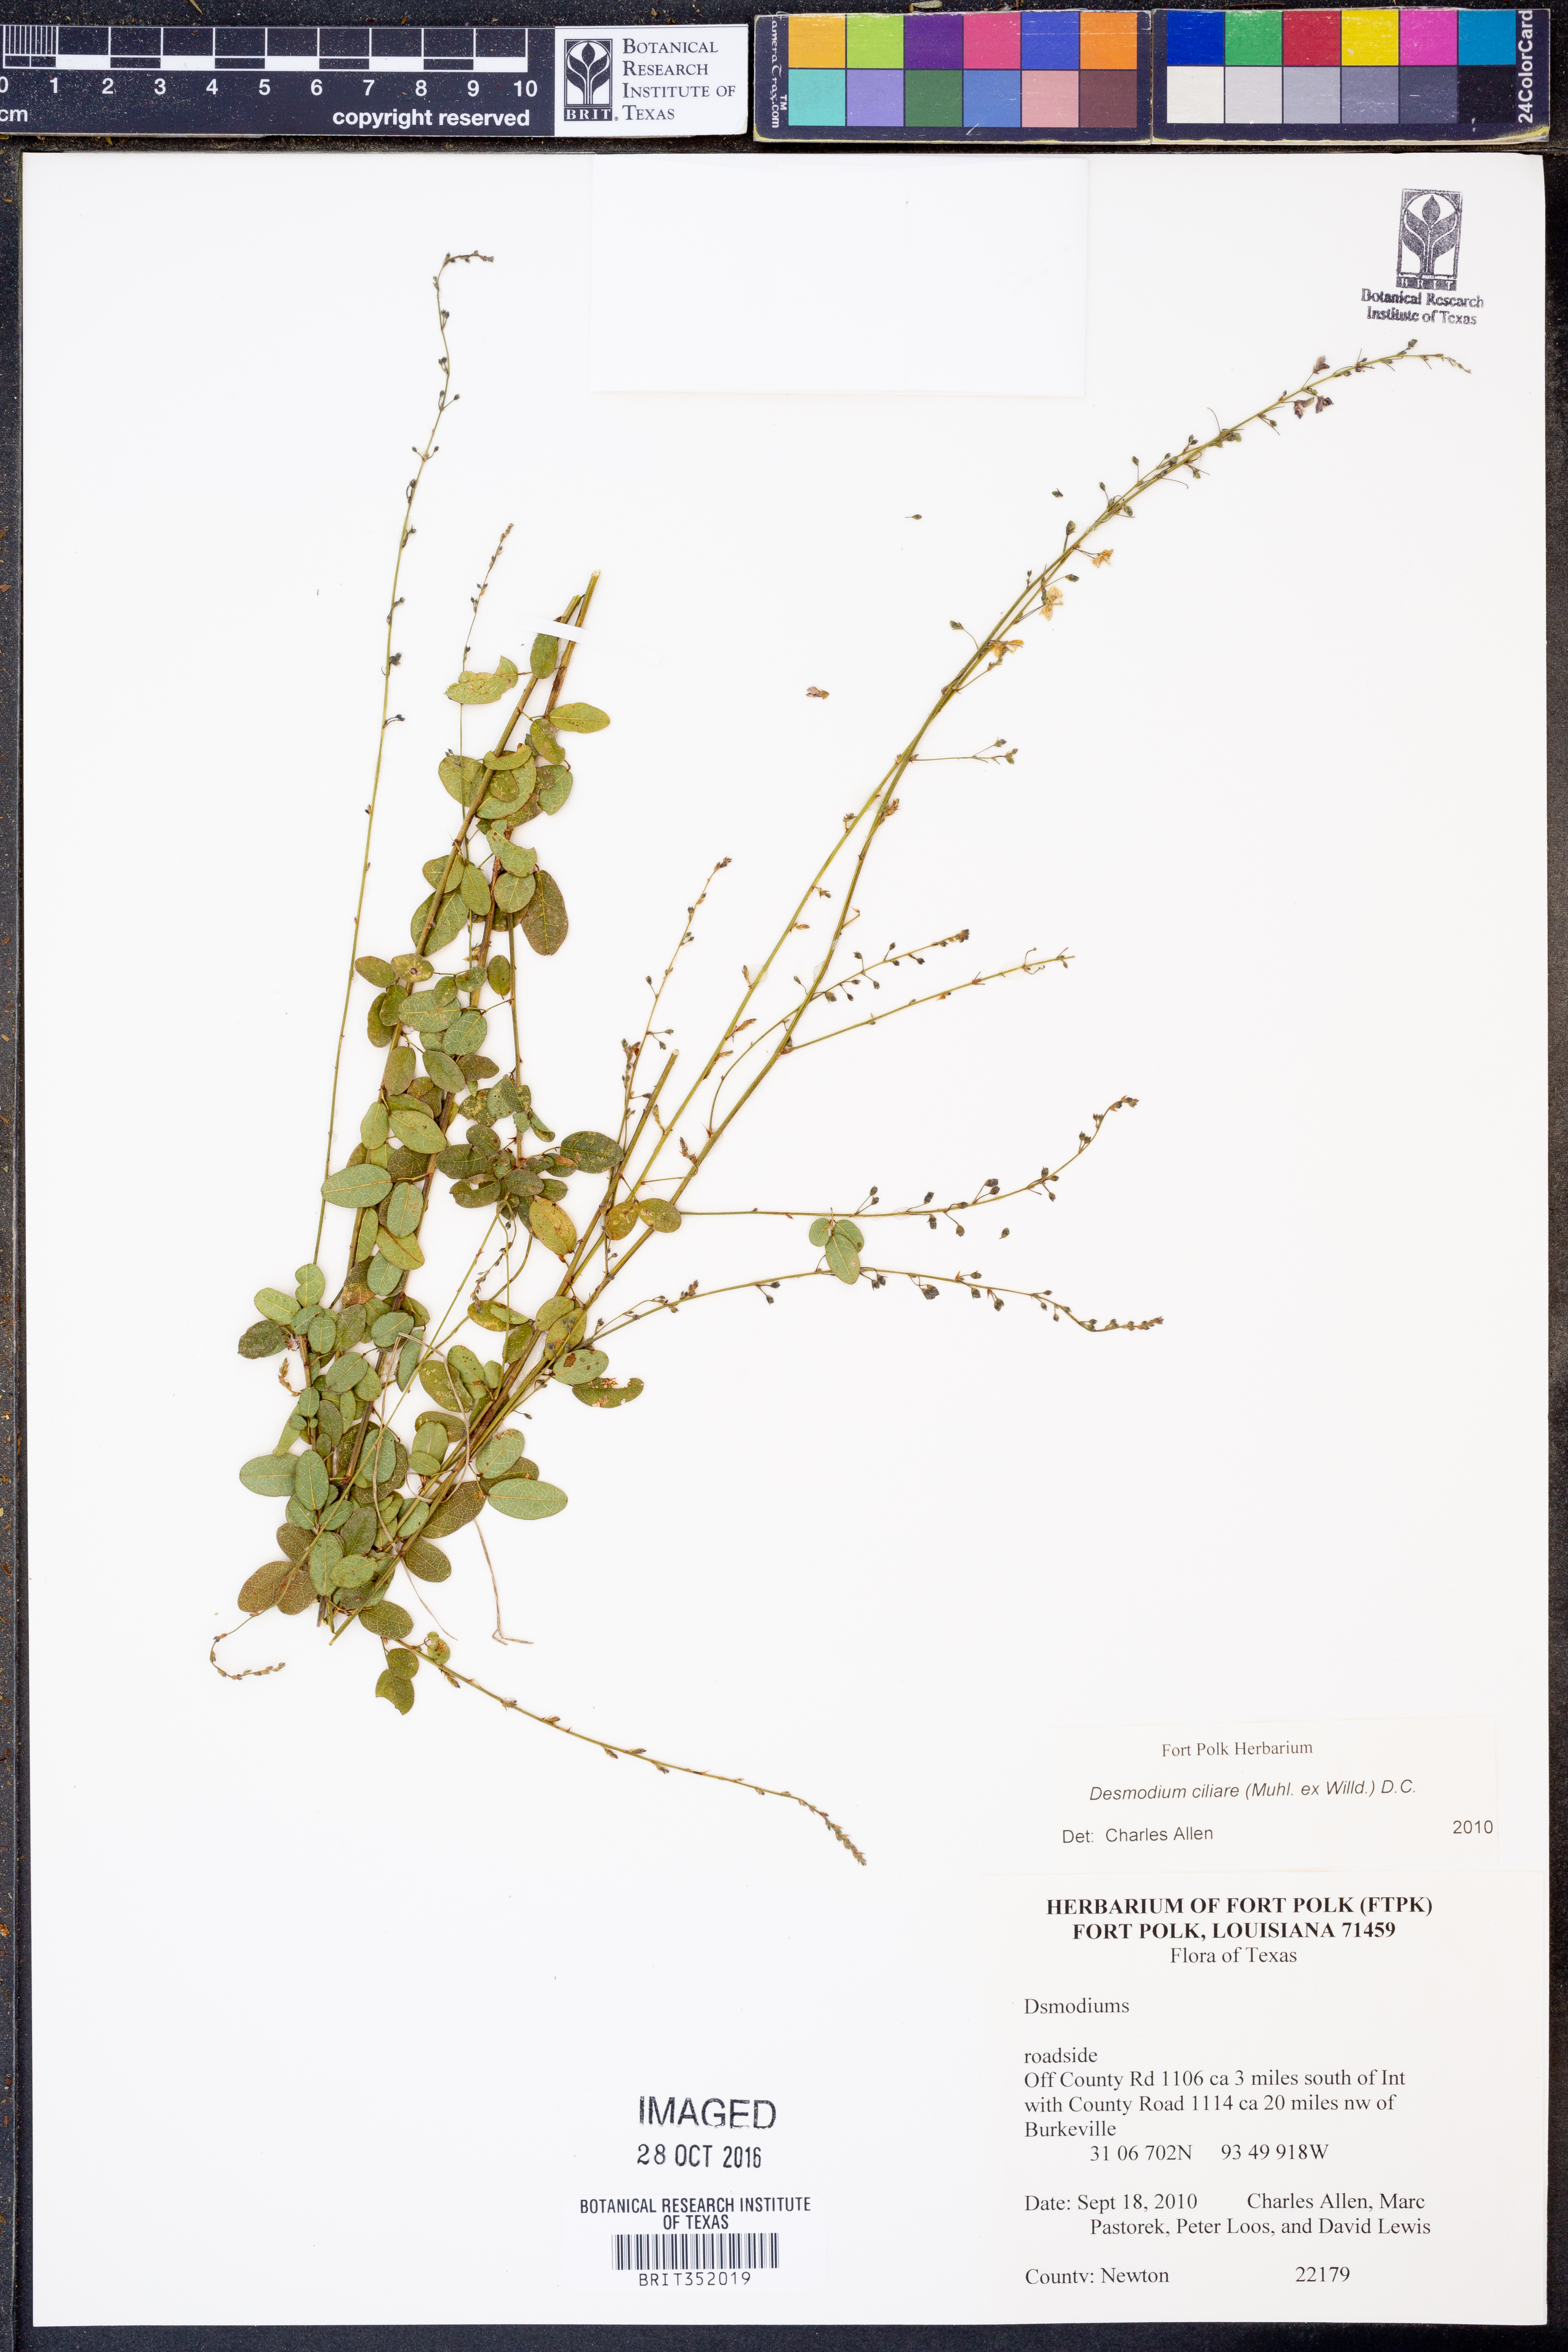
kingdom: Plantae
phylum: Tracheophyta
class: Magnoliopsida
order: Fabales
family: Fabaceae
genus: Desmodium
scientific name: Desmodium ciliare
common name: Hairy small-leaf ticktrefoil
